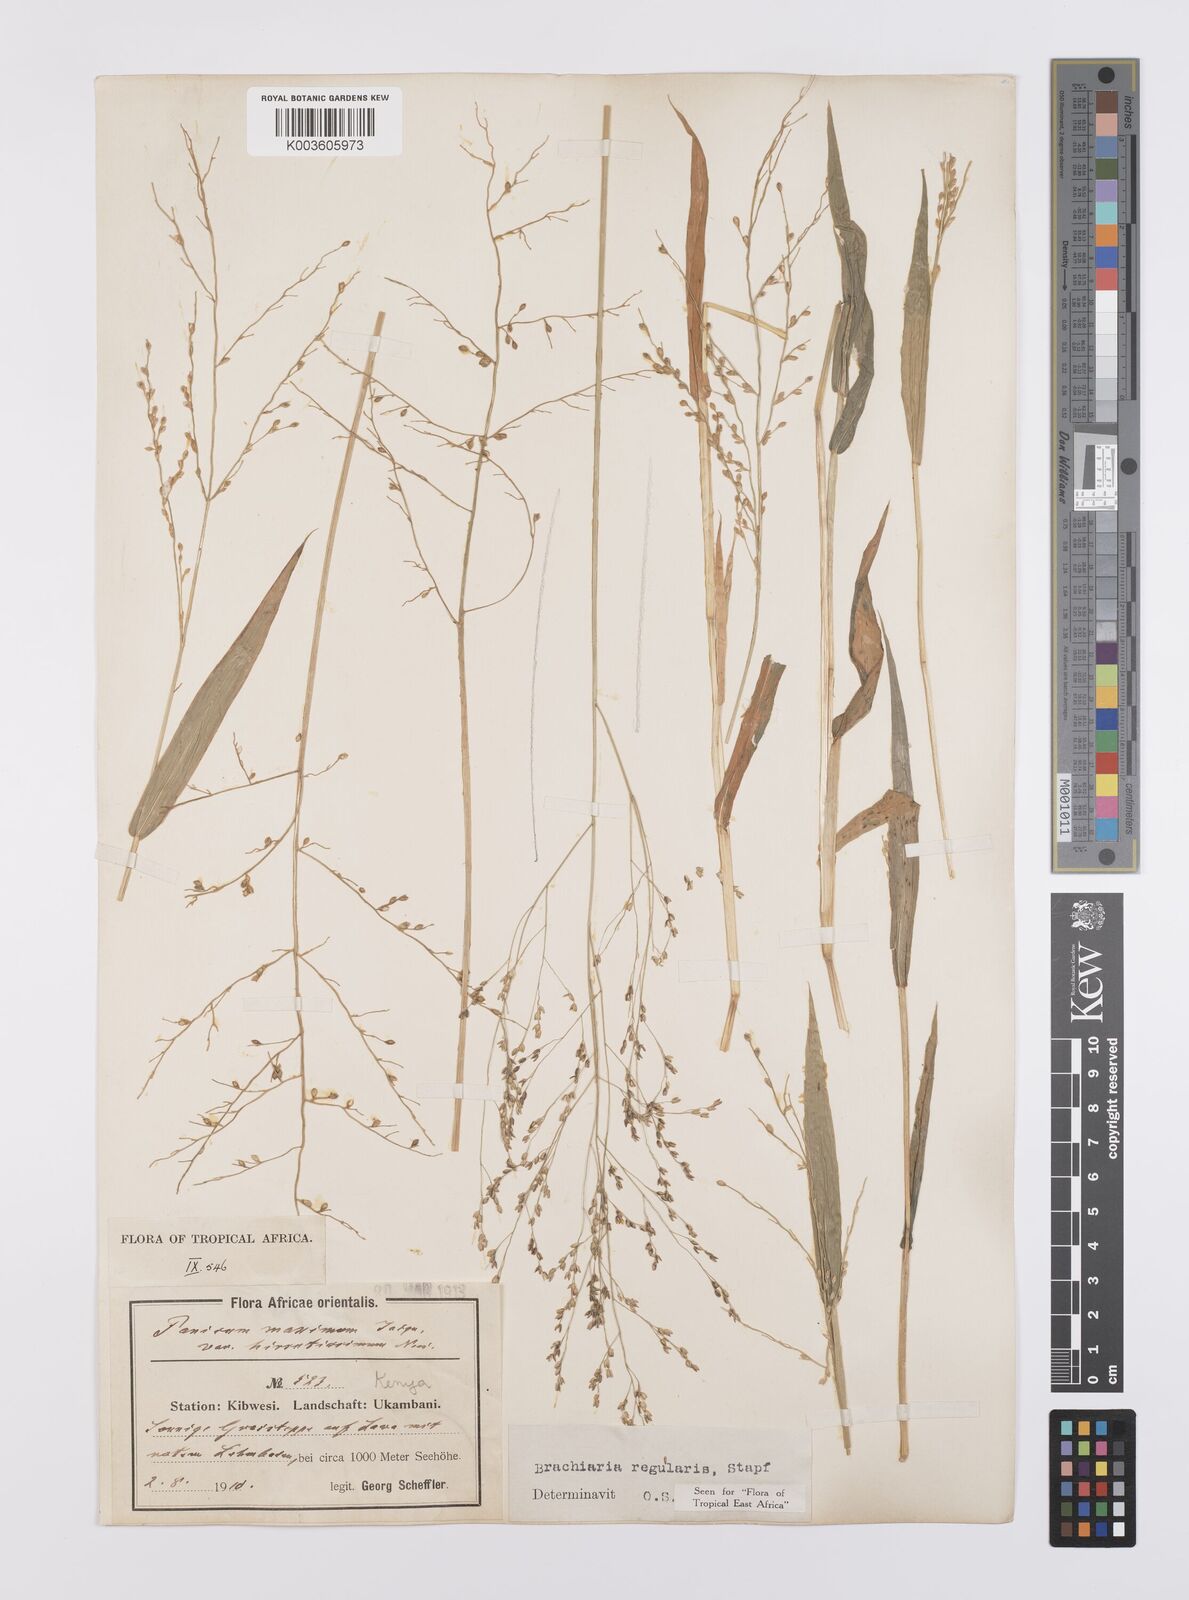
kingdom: Plantae
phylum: Tracheophyta
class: Liliopsida
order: Poales
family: Poaceae
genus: Urochloa
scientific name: Urochloa deflexa
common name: Guinea millet
